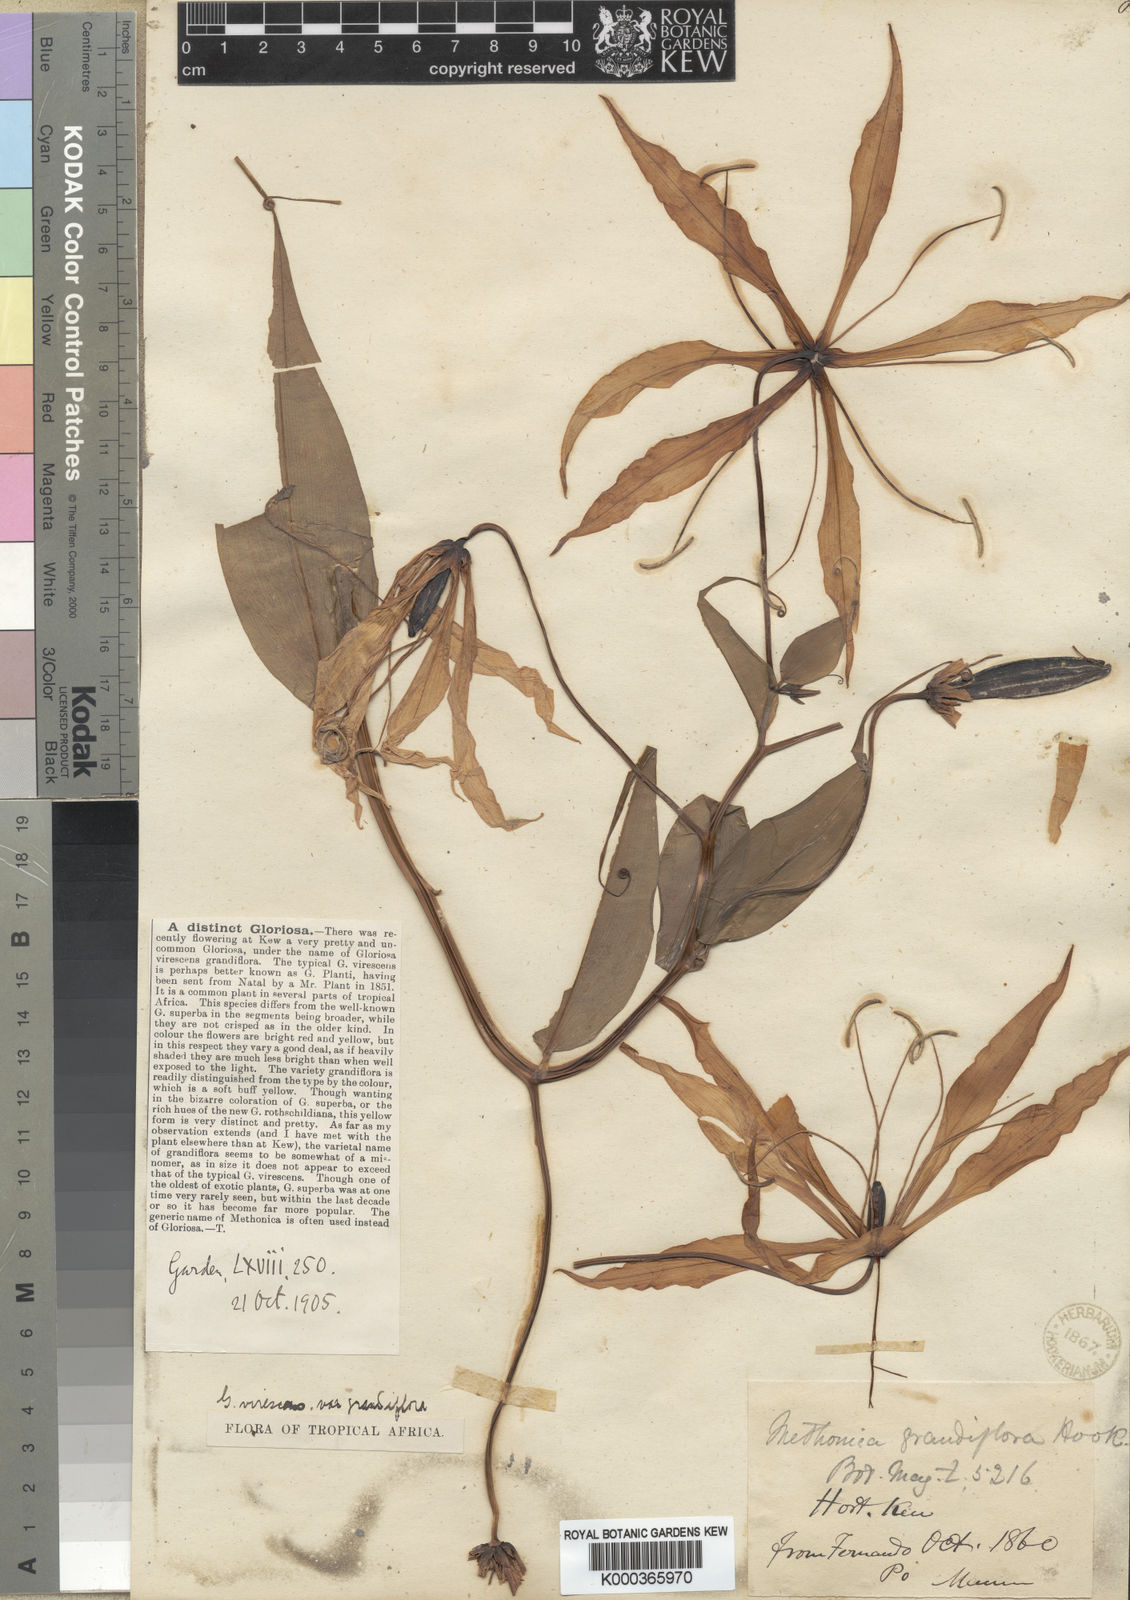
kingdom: Plantae
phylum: Tracheophyta
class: Liliopsida
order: Liliales
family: Colchicaceae
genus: Gloriosa
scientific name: Gloriosa simplex
